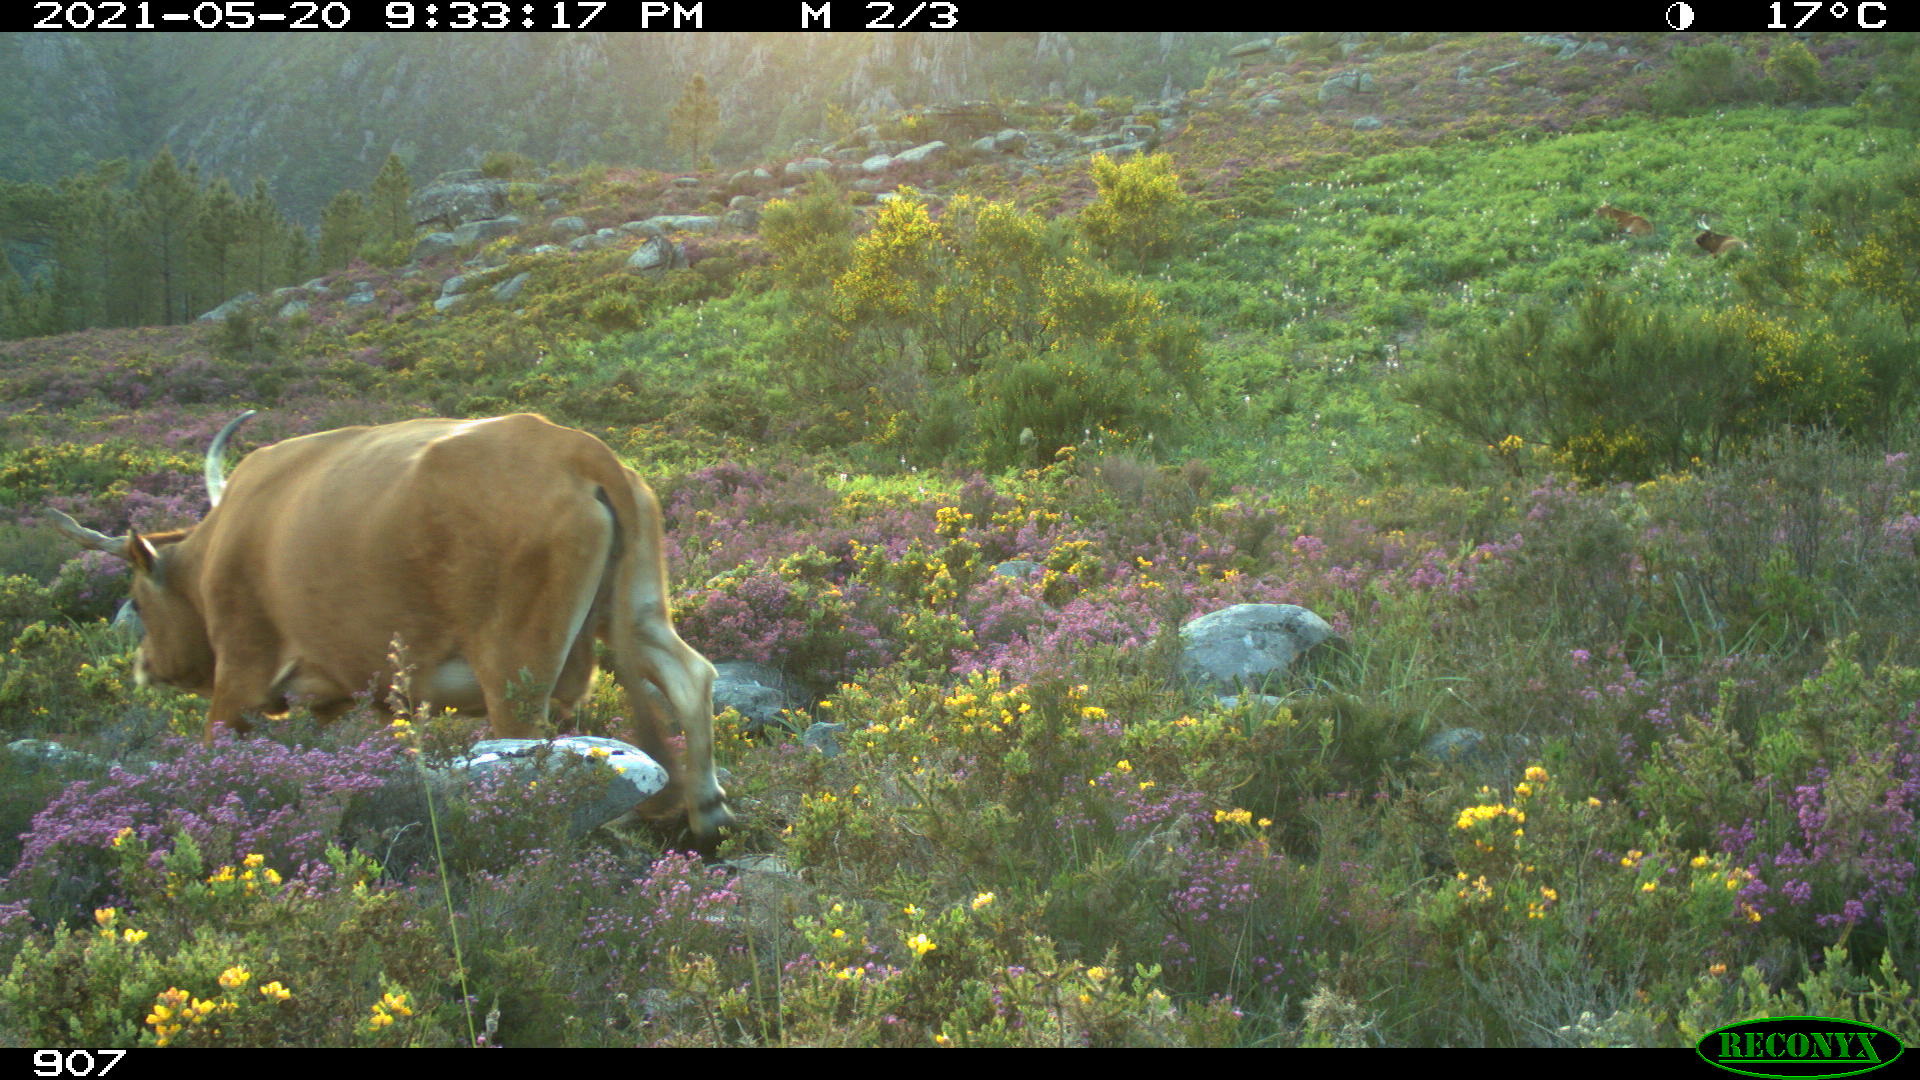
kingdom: Animalia
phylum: Chordata
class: Mammalia
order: Artiodactyla
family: Bovidae
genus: Bos
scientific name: Bos taurus
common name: Domesticated cattle
